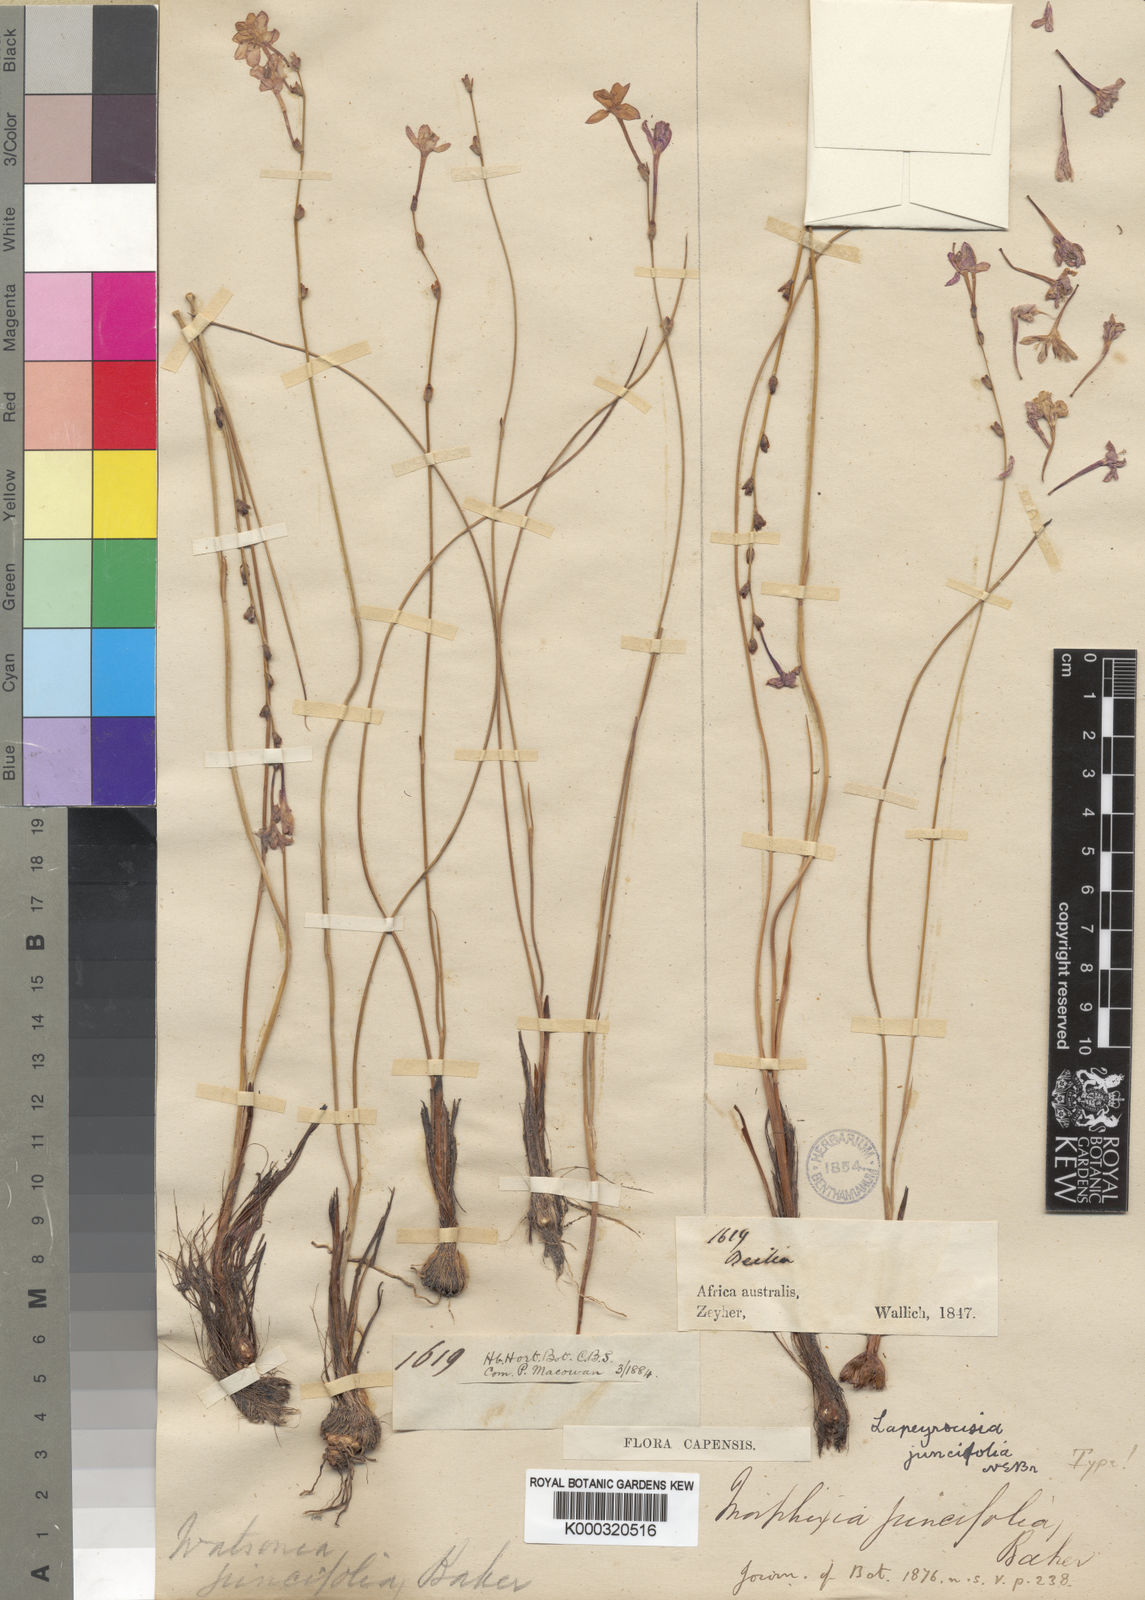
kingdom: Plantae
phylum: Tracheophyta
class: Liliopsida
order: Asparagales
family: Iridaceae
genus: Thereianthus
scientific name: Thereianthus juncifolius
